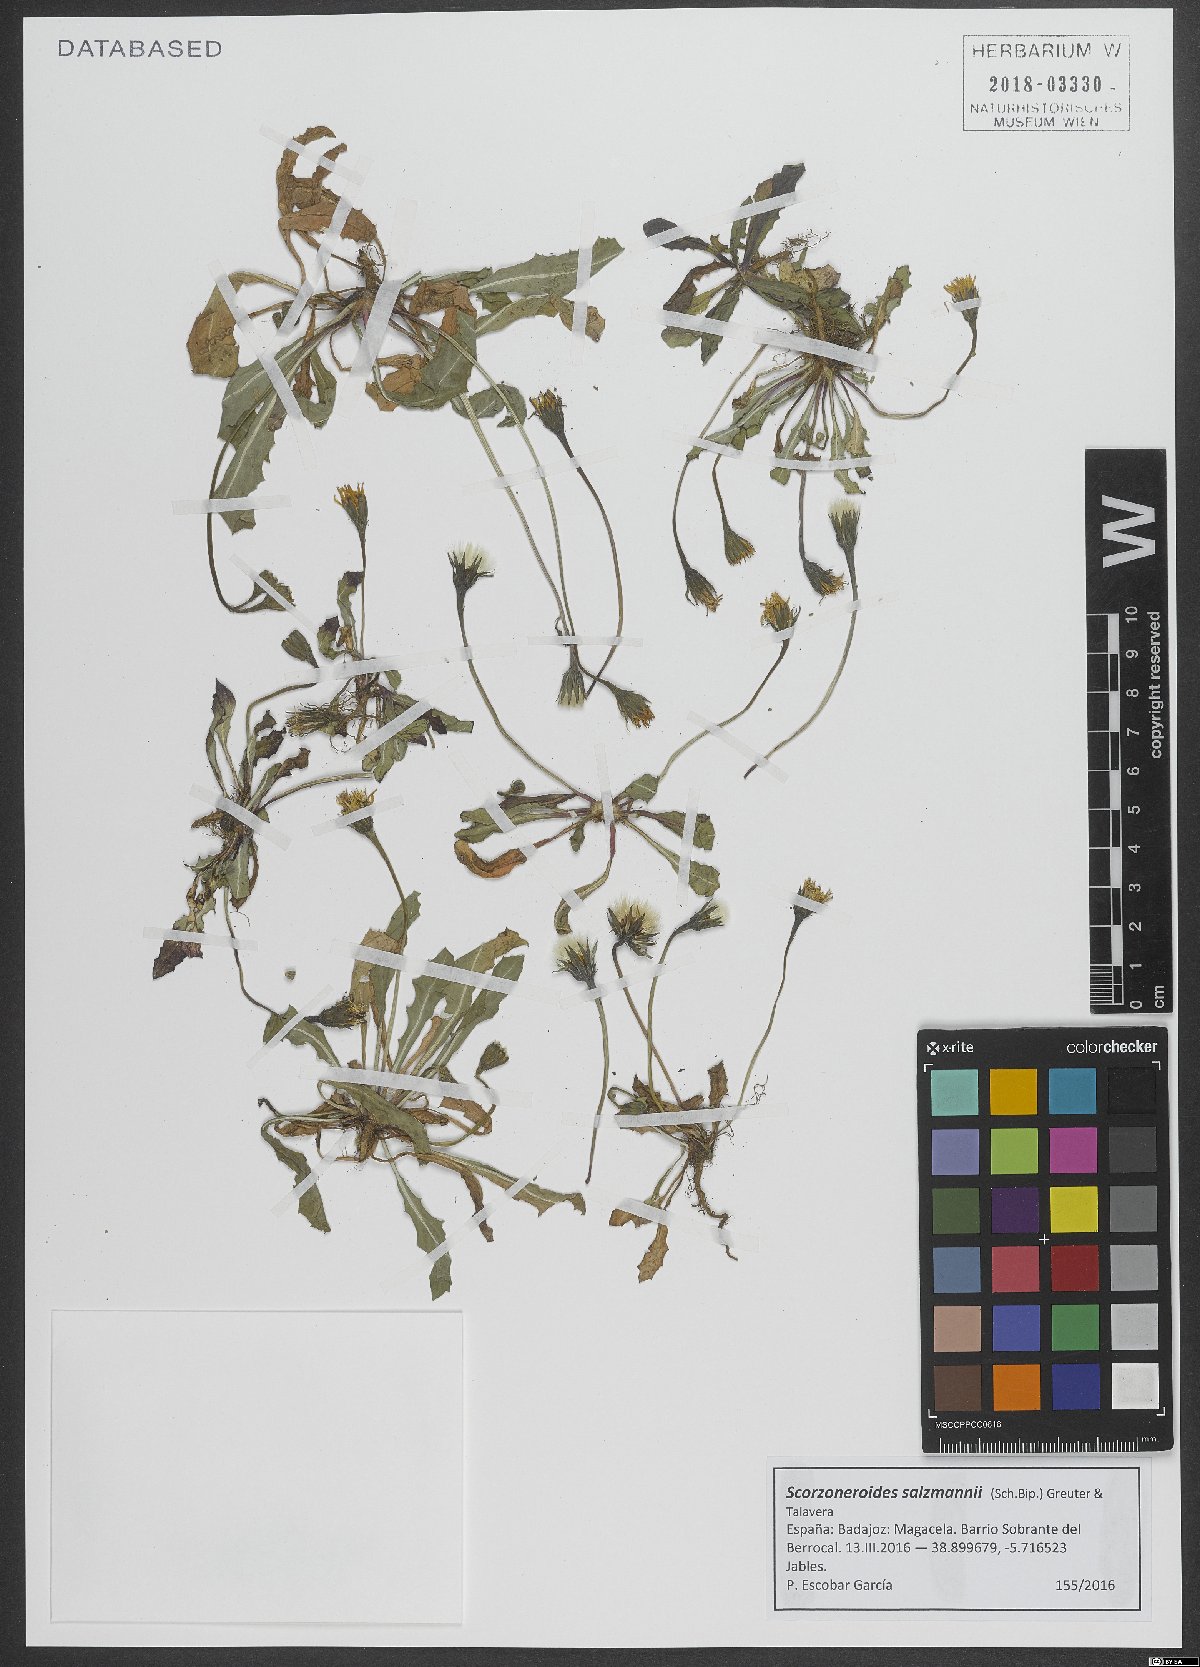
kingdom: Plantae
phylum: Tracheophyta
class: Magnoliopsida
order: Asterales
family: Asteraceae
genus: Scorzoneroides
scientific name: Scorzoneroides salzmannii
